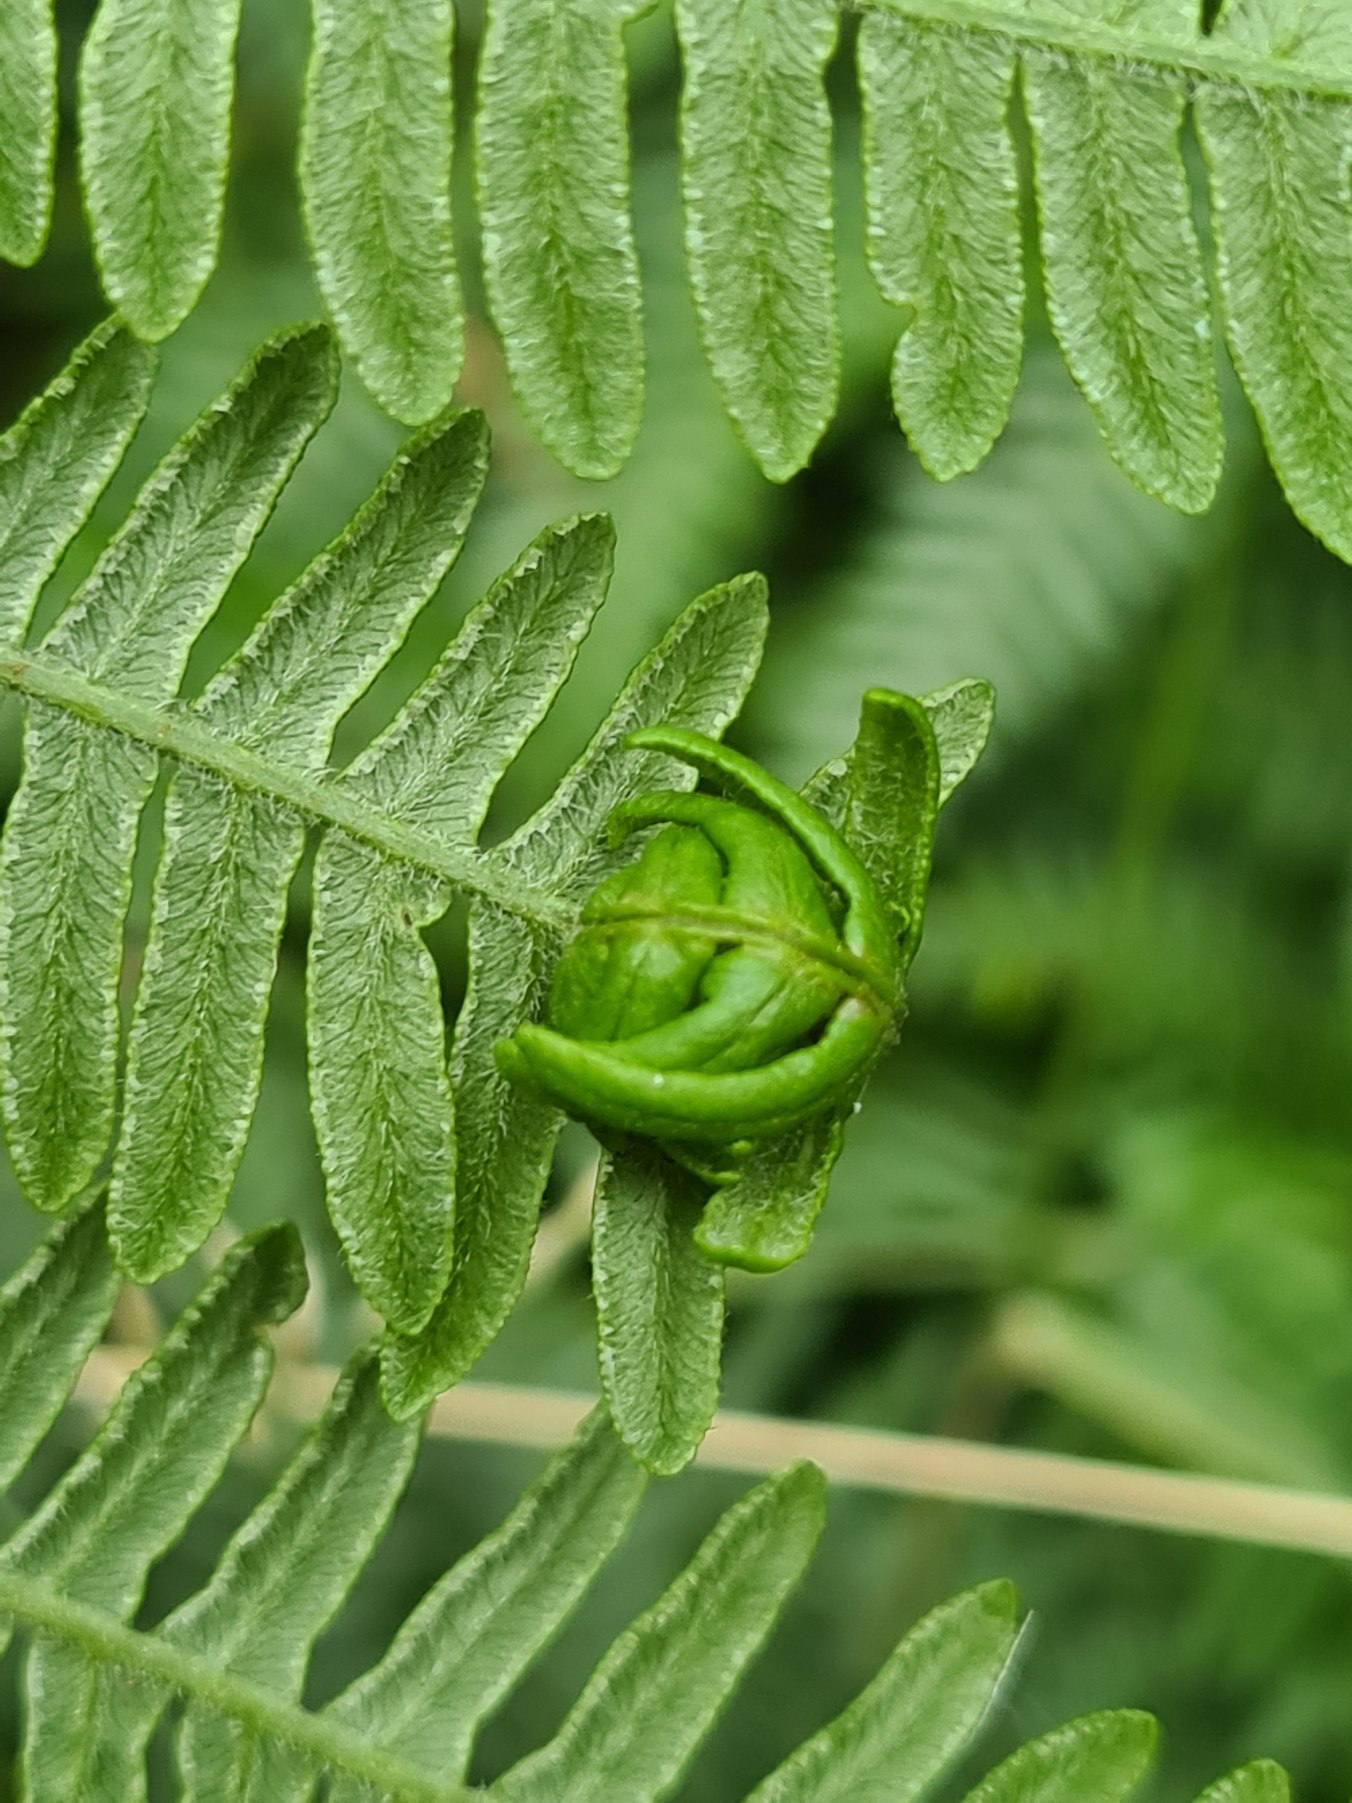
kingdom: Plantae
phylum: Tracheophyta
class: Polypodiopsida
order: Polypodiales
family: Dennstaedtiaceae
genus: Pteridium
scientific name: Pteridium aquilinum
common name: Ørnebregne
